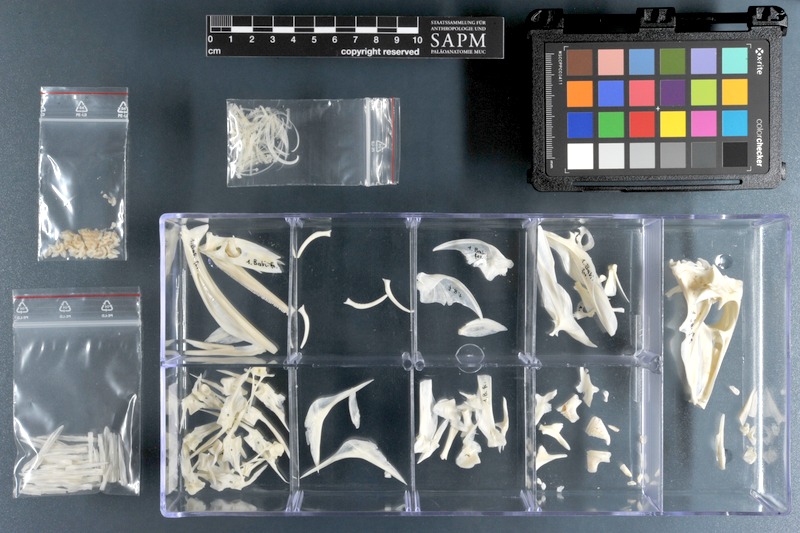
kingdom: Animalia
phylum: Chordata
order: Tetraodontiformes
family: Balistidae
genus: Balistes
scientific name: Balistes capriscus
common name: Grey triggerfish
